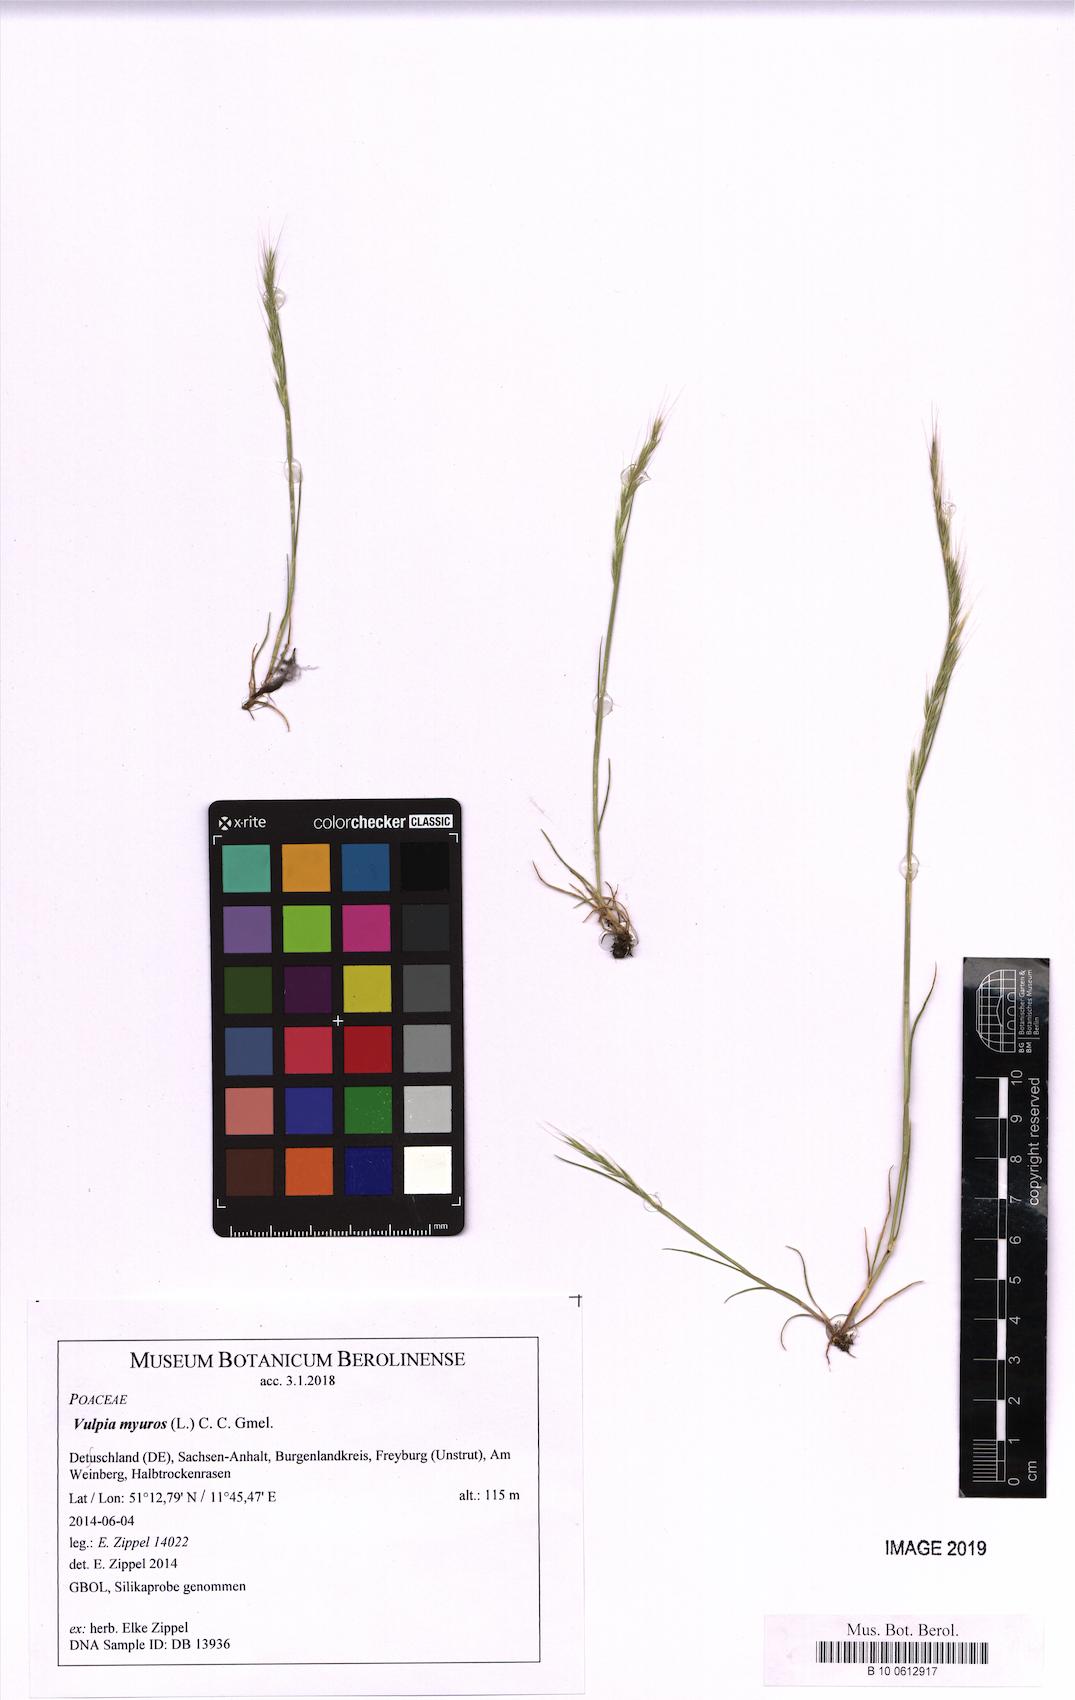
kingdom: Plantae
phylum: Tracheophyta
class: Liliopsida
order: Poales
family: Poaceae
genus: Festuca
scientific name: Festuca myuros
